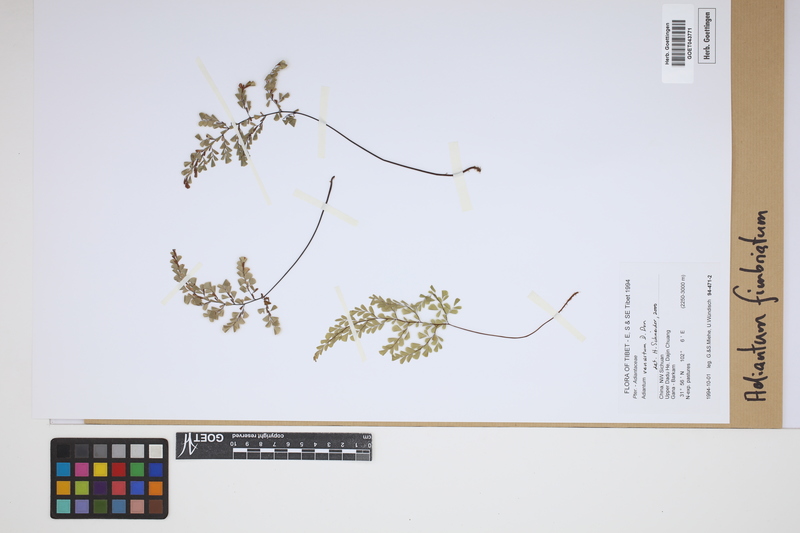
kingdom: Plantae
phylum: Tracheophyta
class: Polypodiopsida
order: Polypodiales
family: Pteridaceae
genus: Adiantum
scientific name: Adiantum venustum
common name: Evergreen maidenhair
